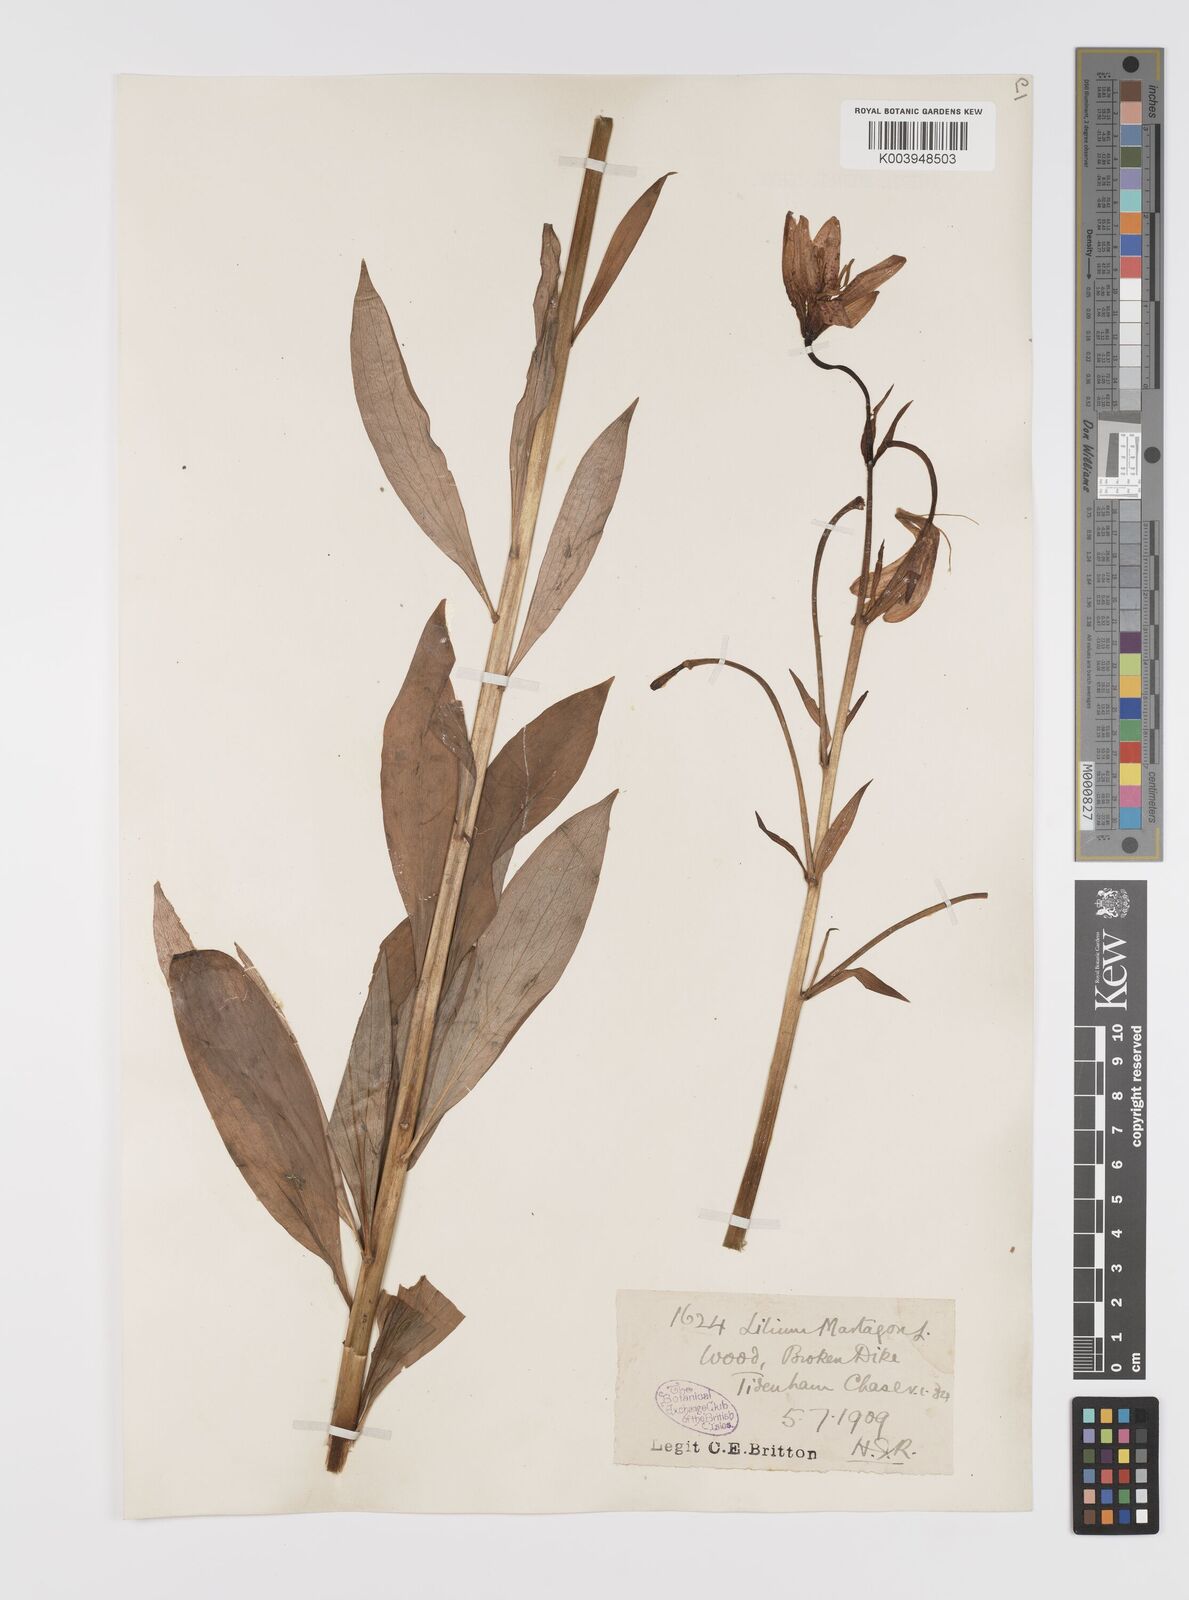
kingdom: Plantae
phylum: Tracheophyta
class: Liliopsida
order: Liliales
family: Liliaceae
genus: Lilium
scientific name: Lilium martagon
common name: Martagon lily
